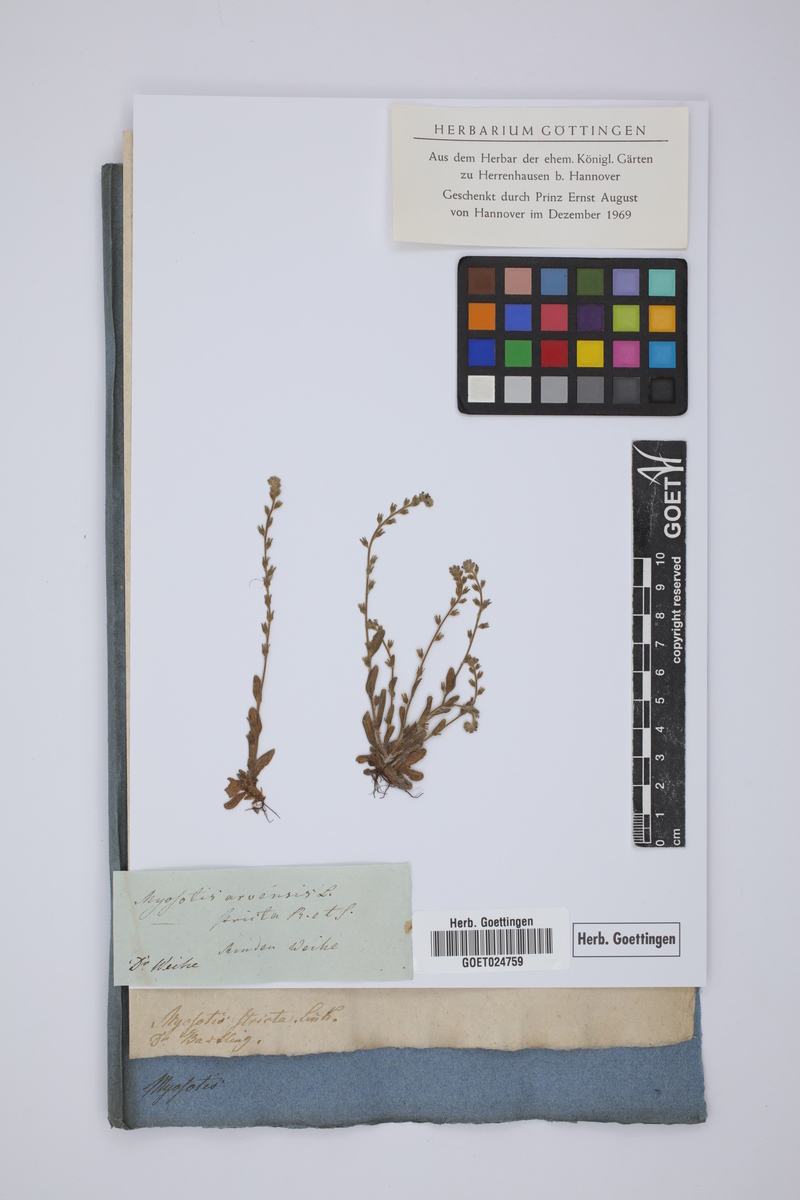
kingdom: Plantae
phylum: Tracheophyta
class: Magnoliopsida
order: Boraginales
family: Boraginaceae
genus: Myosotis
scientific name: Myosotis stricta
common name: Strict forget-me-not
